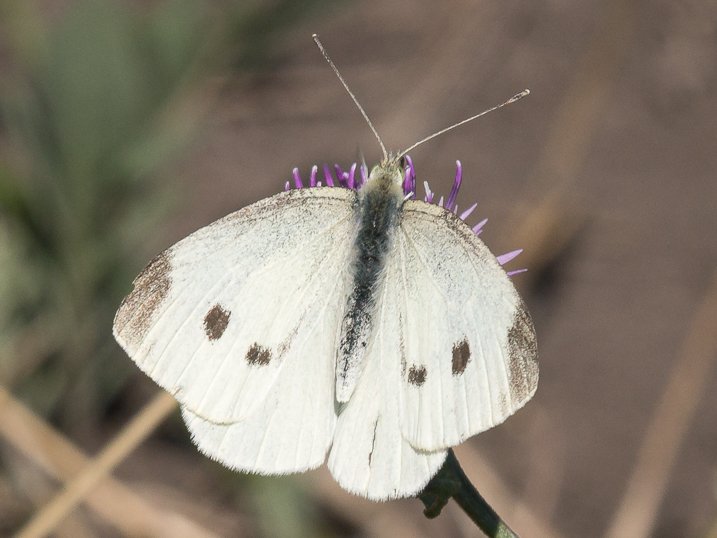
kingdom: Animalia
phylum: Arthropoda
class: Insecta
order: Lepidoptera
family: Pieridae
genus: Pieris
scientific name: Pieris rapae
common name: Cabbage White
